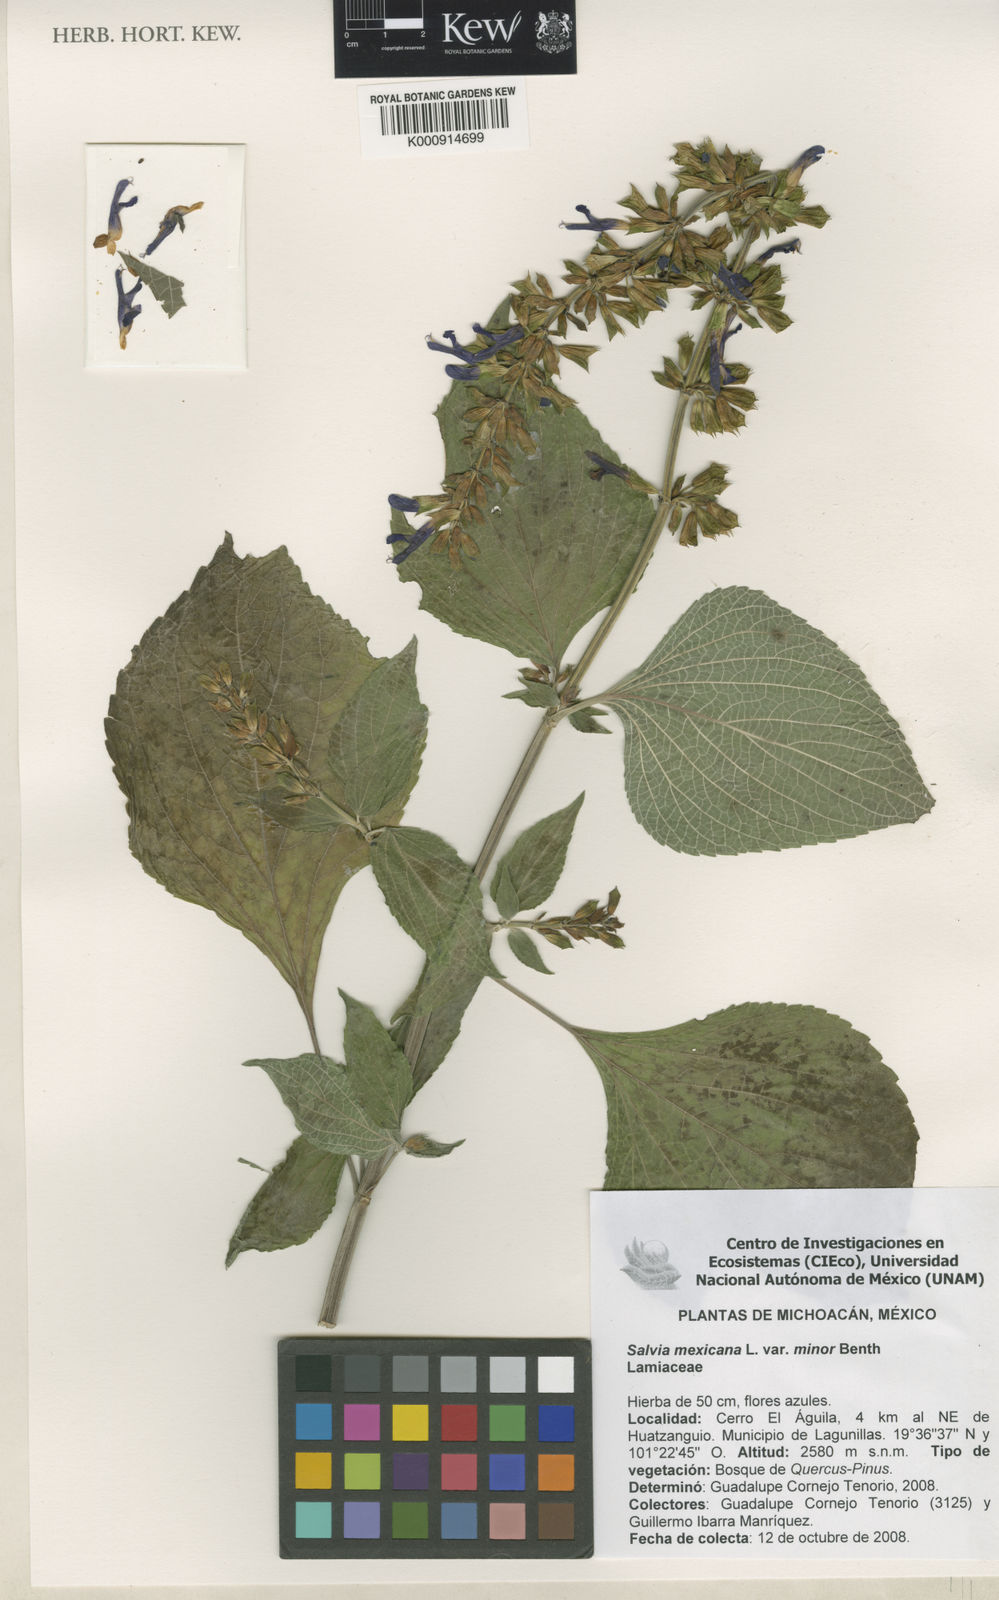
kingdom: Plantae
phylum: Tracheophyta
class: Magnoliopsida
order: Lamiales
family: Lamiaceae
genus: Salvia
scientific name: Salvia mexicana
